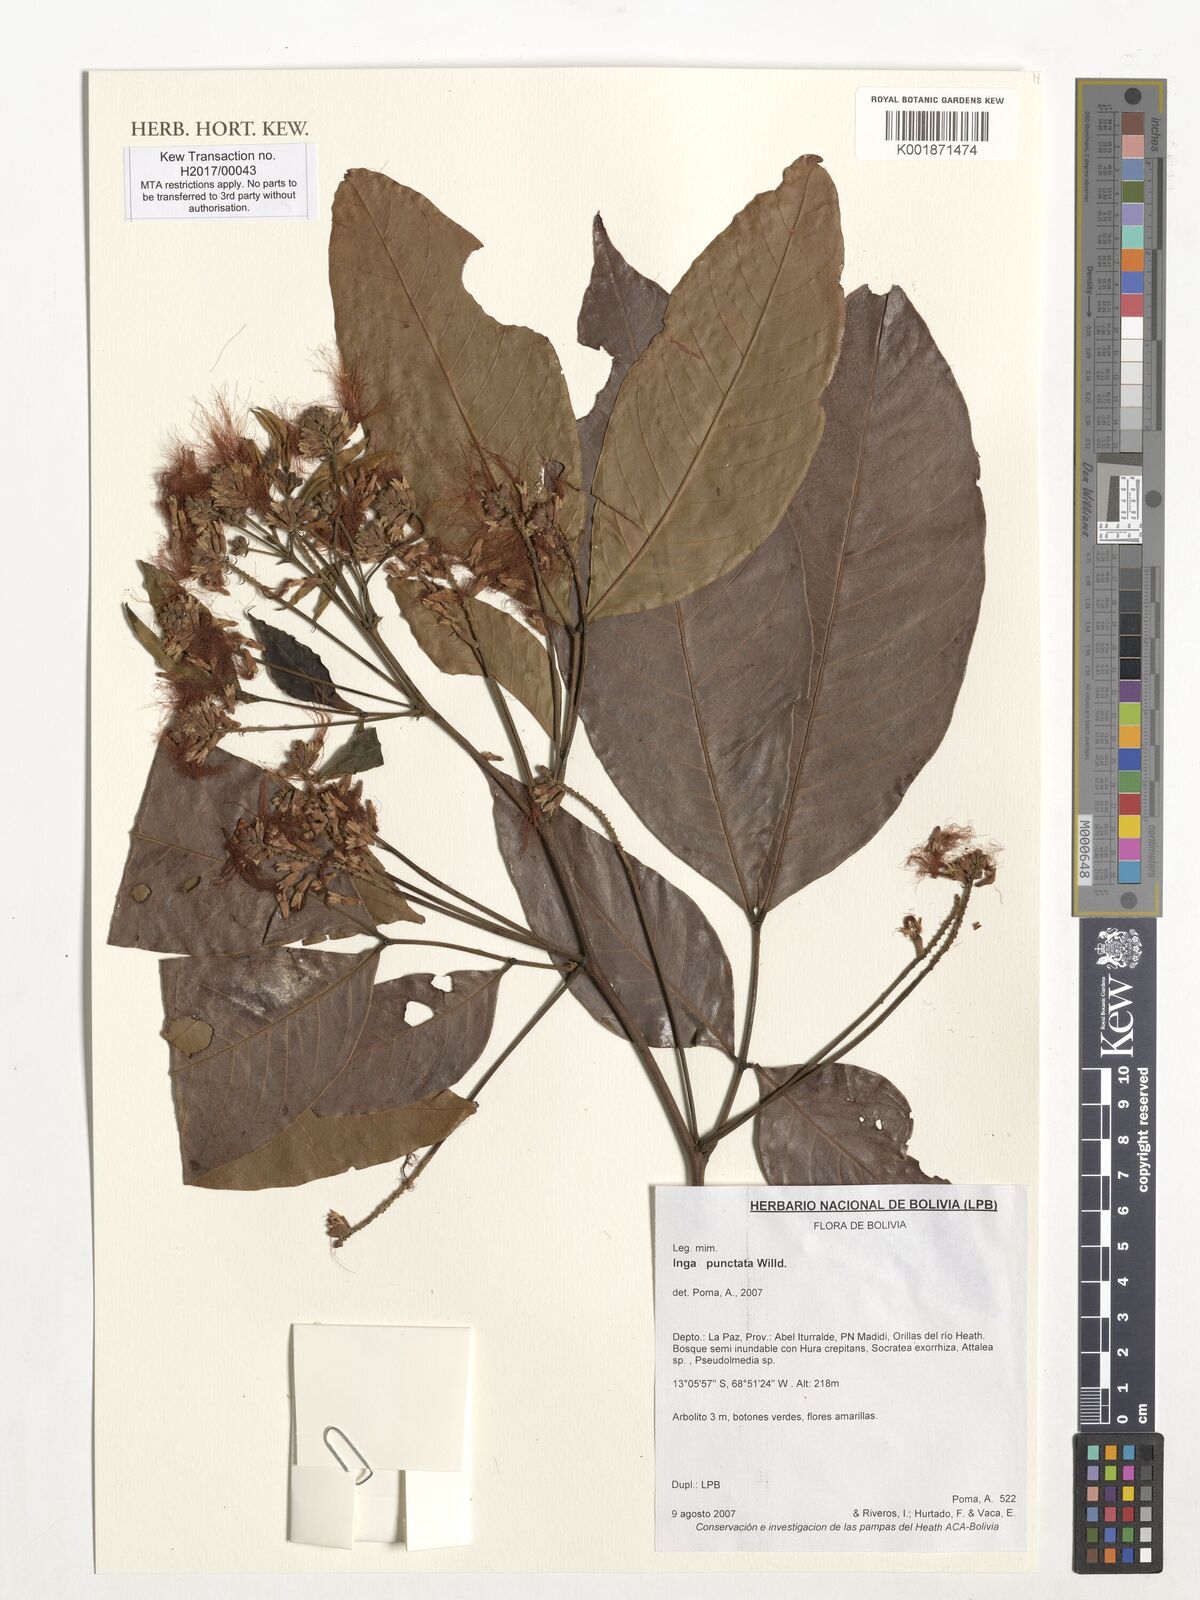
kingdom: Plantae
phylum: Tracheophyta
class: Magnoliopsida
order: Fabales
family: Fabaceae
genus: Inga
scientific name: Inga punctata
